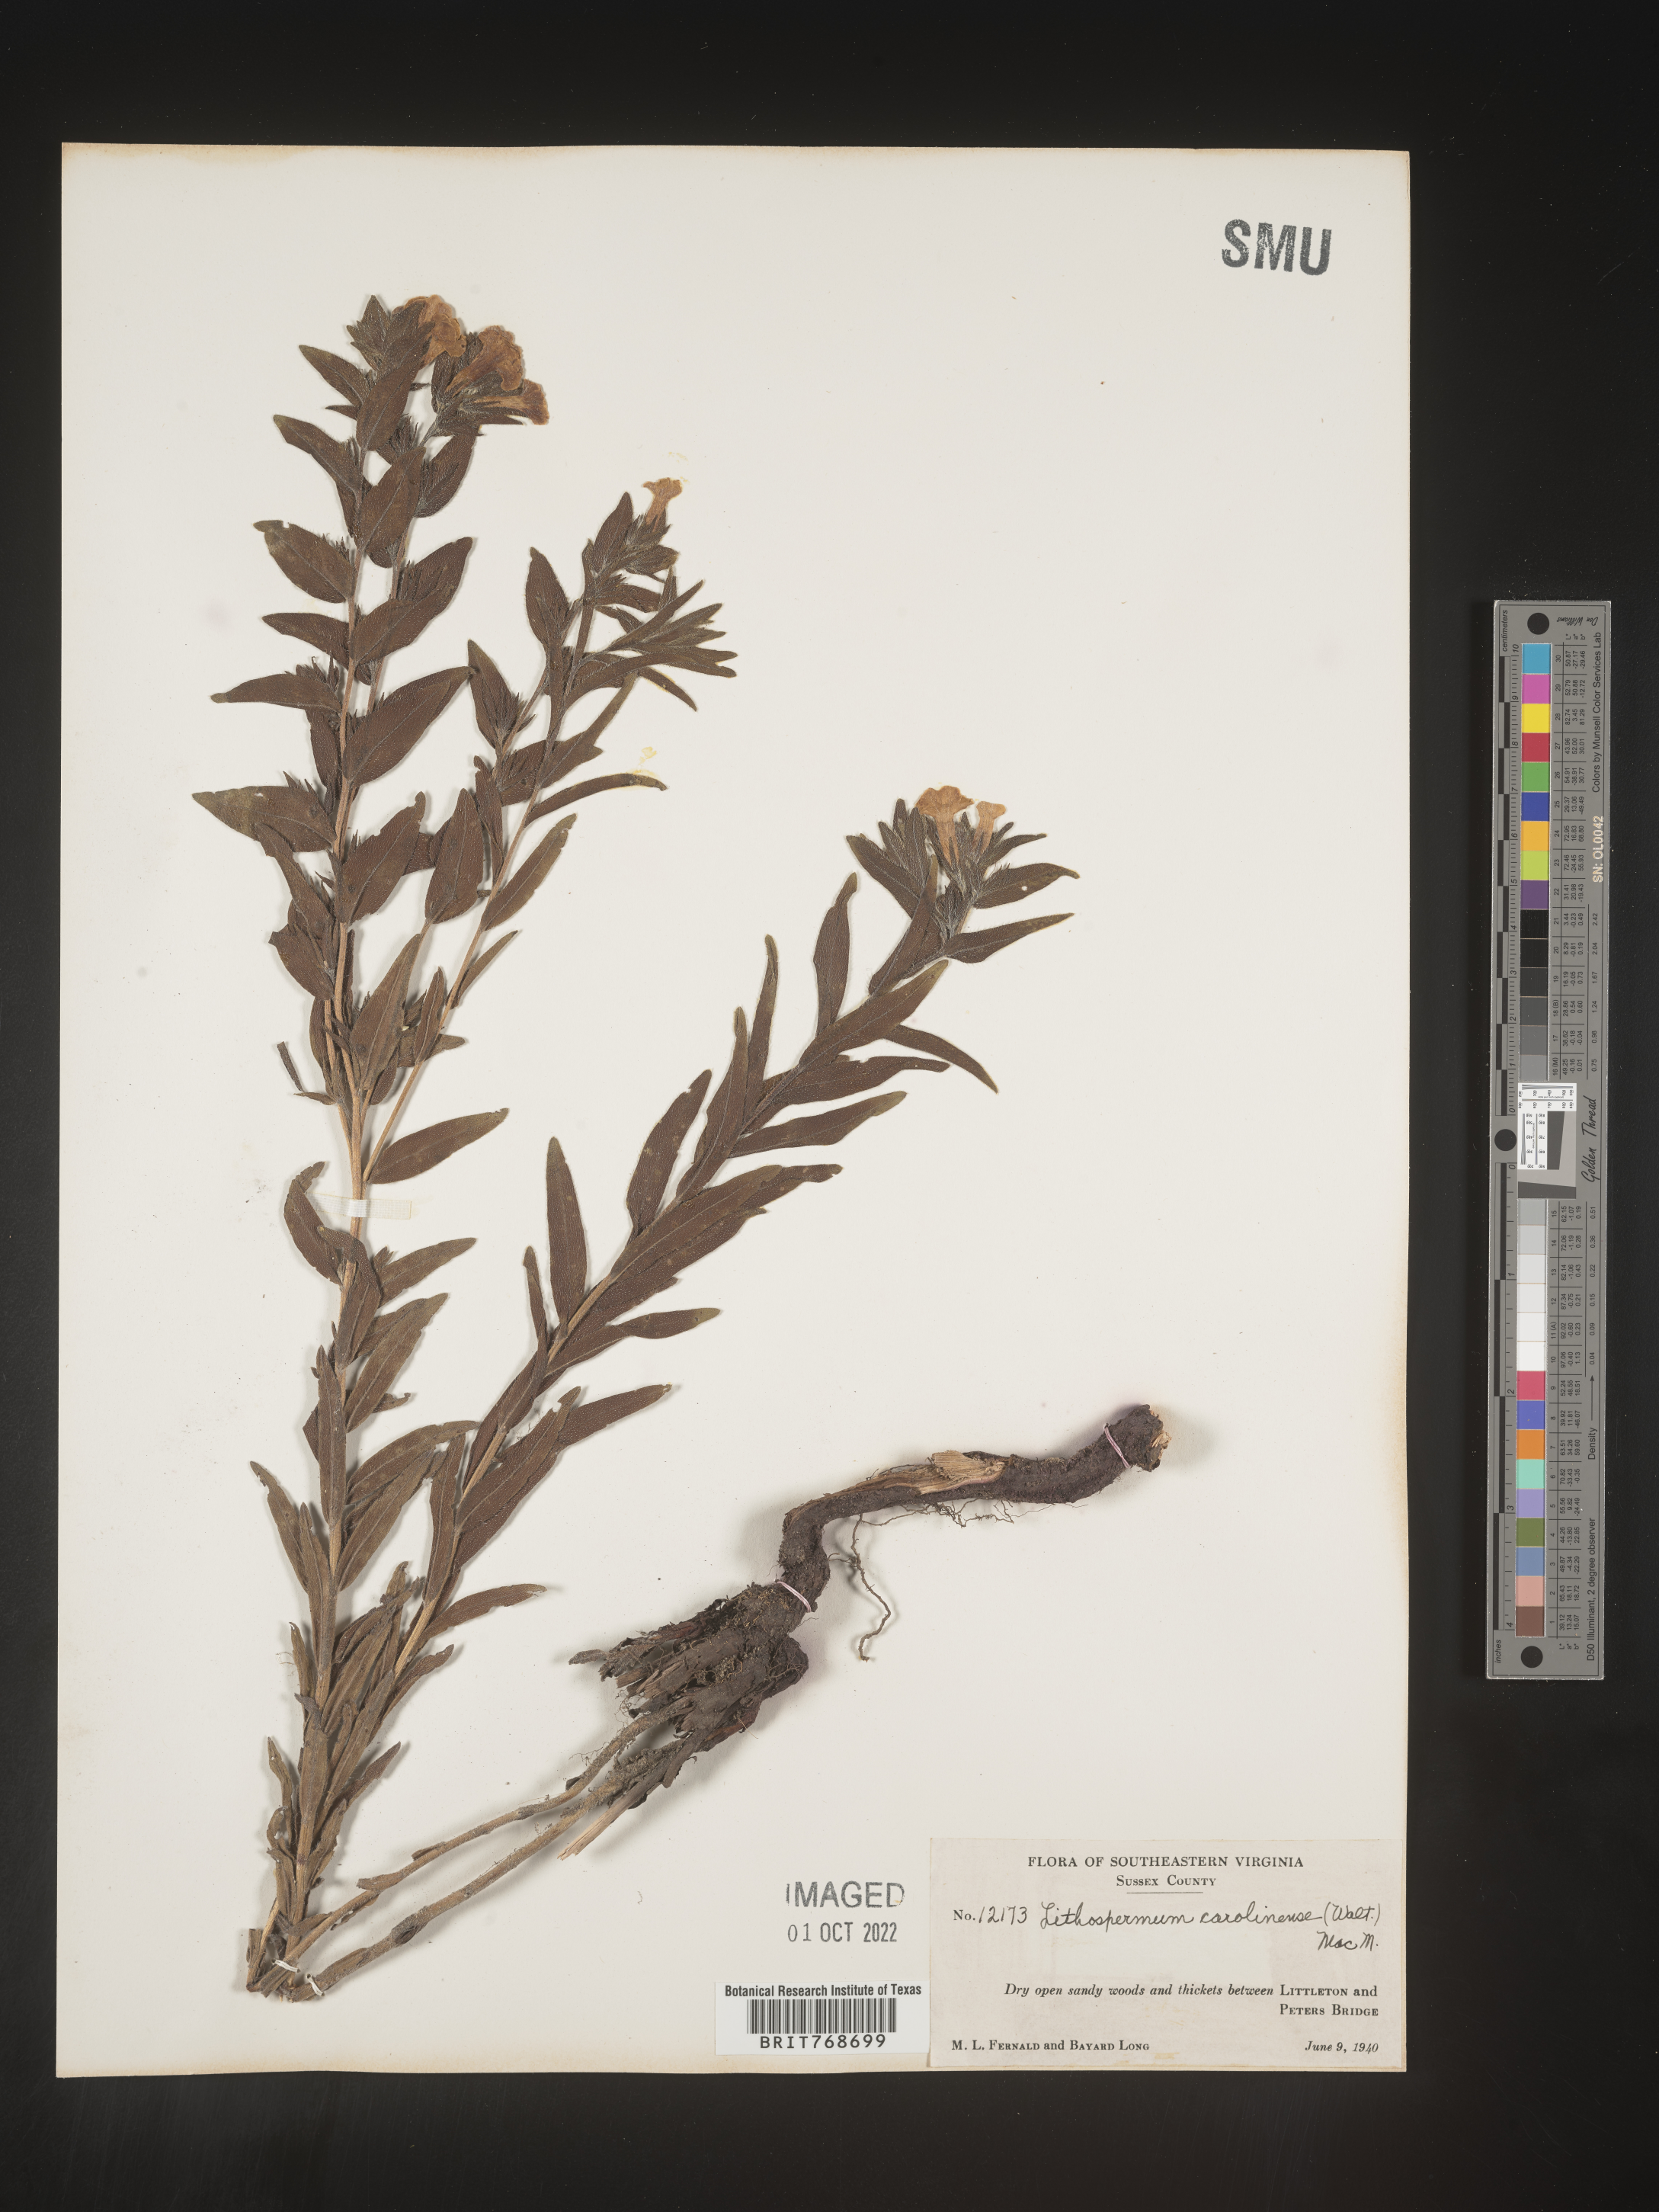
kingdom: Plantae
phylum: Tracheophyta
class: Magnoliopsida
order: Boraginales
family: Boraginaceae
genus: Lithospermum
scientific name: Lithospermum caroliniense
